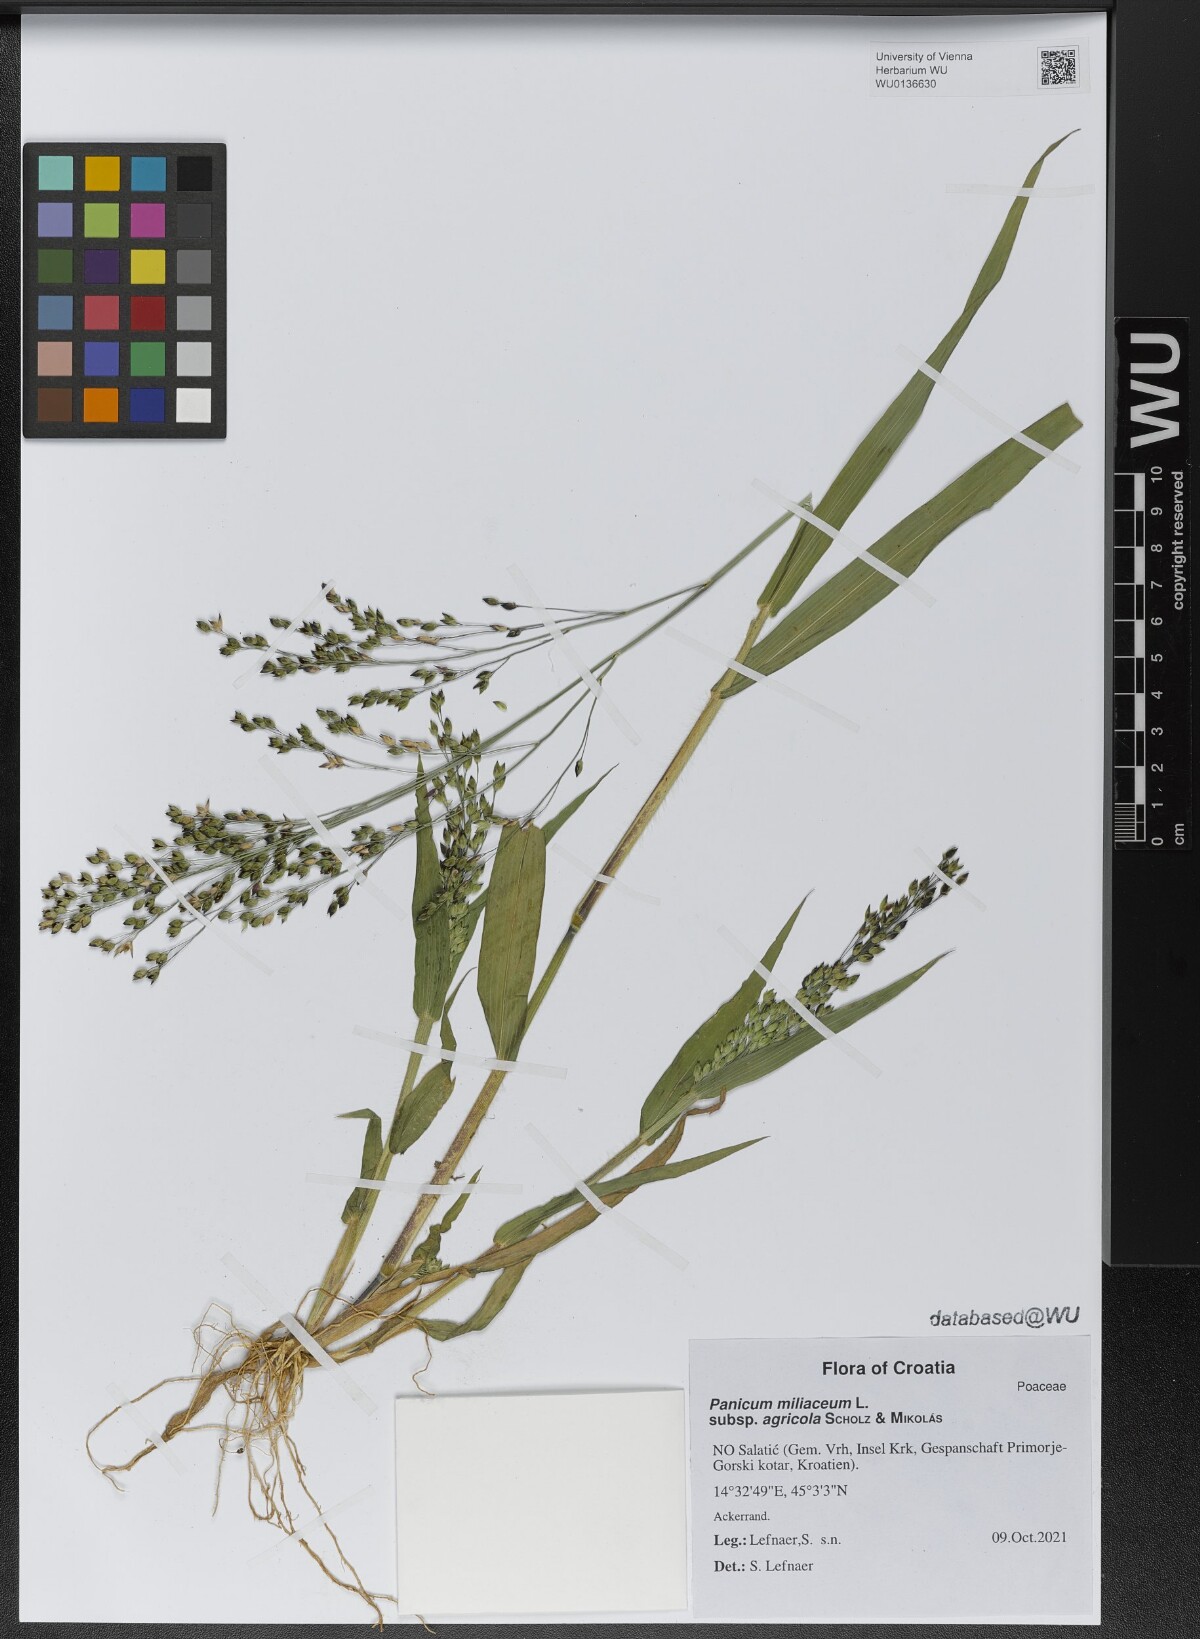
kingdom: Plantae
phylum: Tracheophyta
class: Liliopsida
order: Poales
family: Poaceae
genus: Panicum
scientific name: Panicum miliaceum
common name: Common millet
